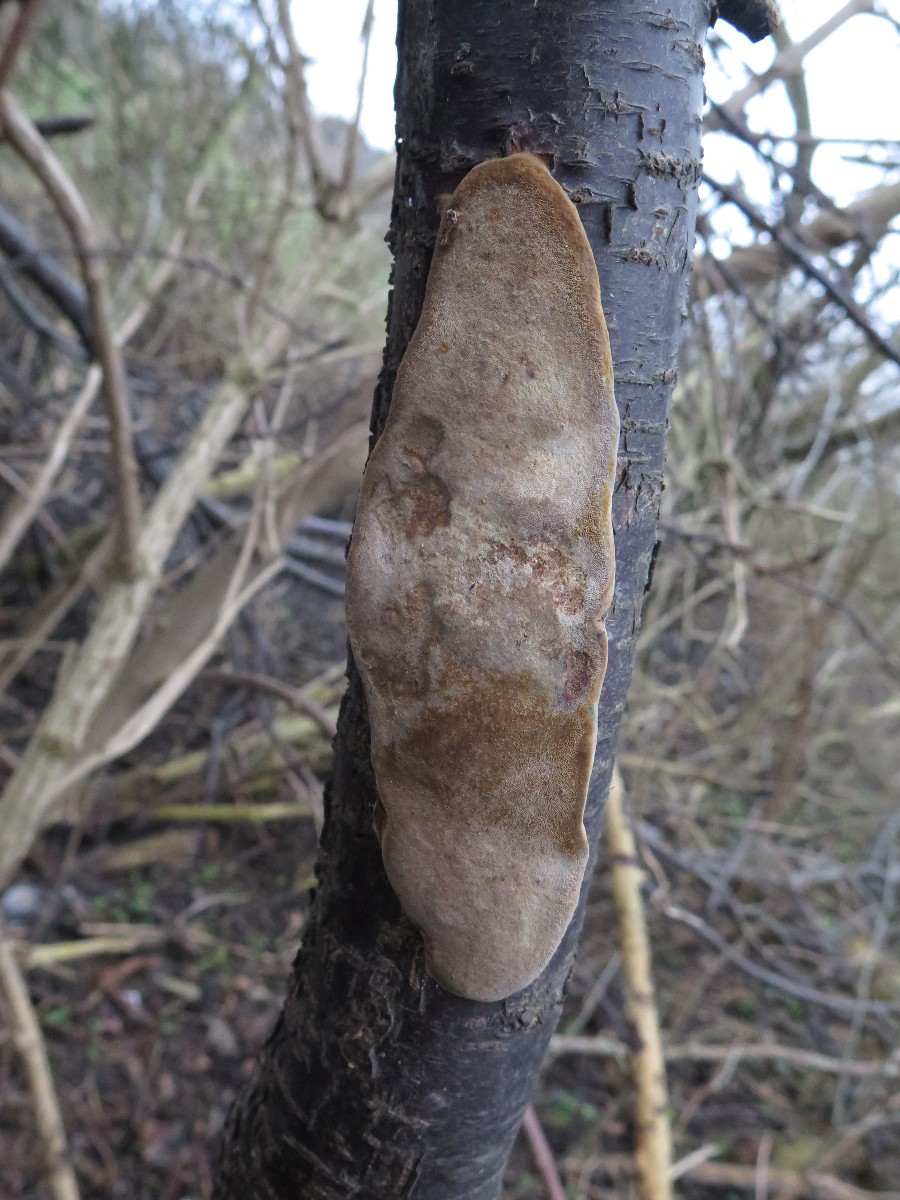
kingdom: Fungi
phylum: Basidiomycota
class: Agaricomycetes
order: Hymenochaetales
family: Hymenochaetaceae
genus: Phellinus
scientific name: Phellinus pomaceus
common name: blomme-ildporesvamp
